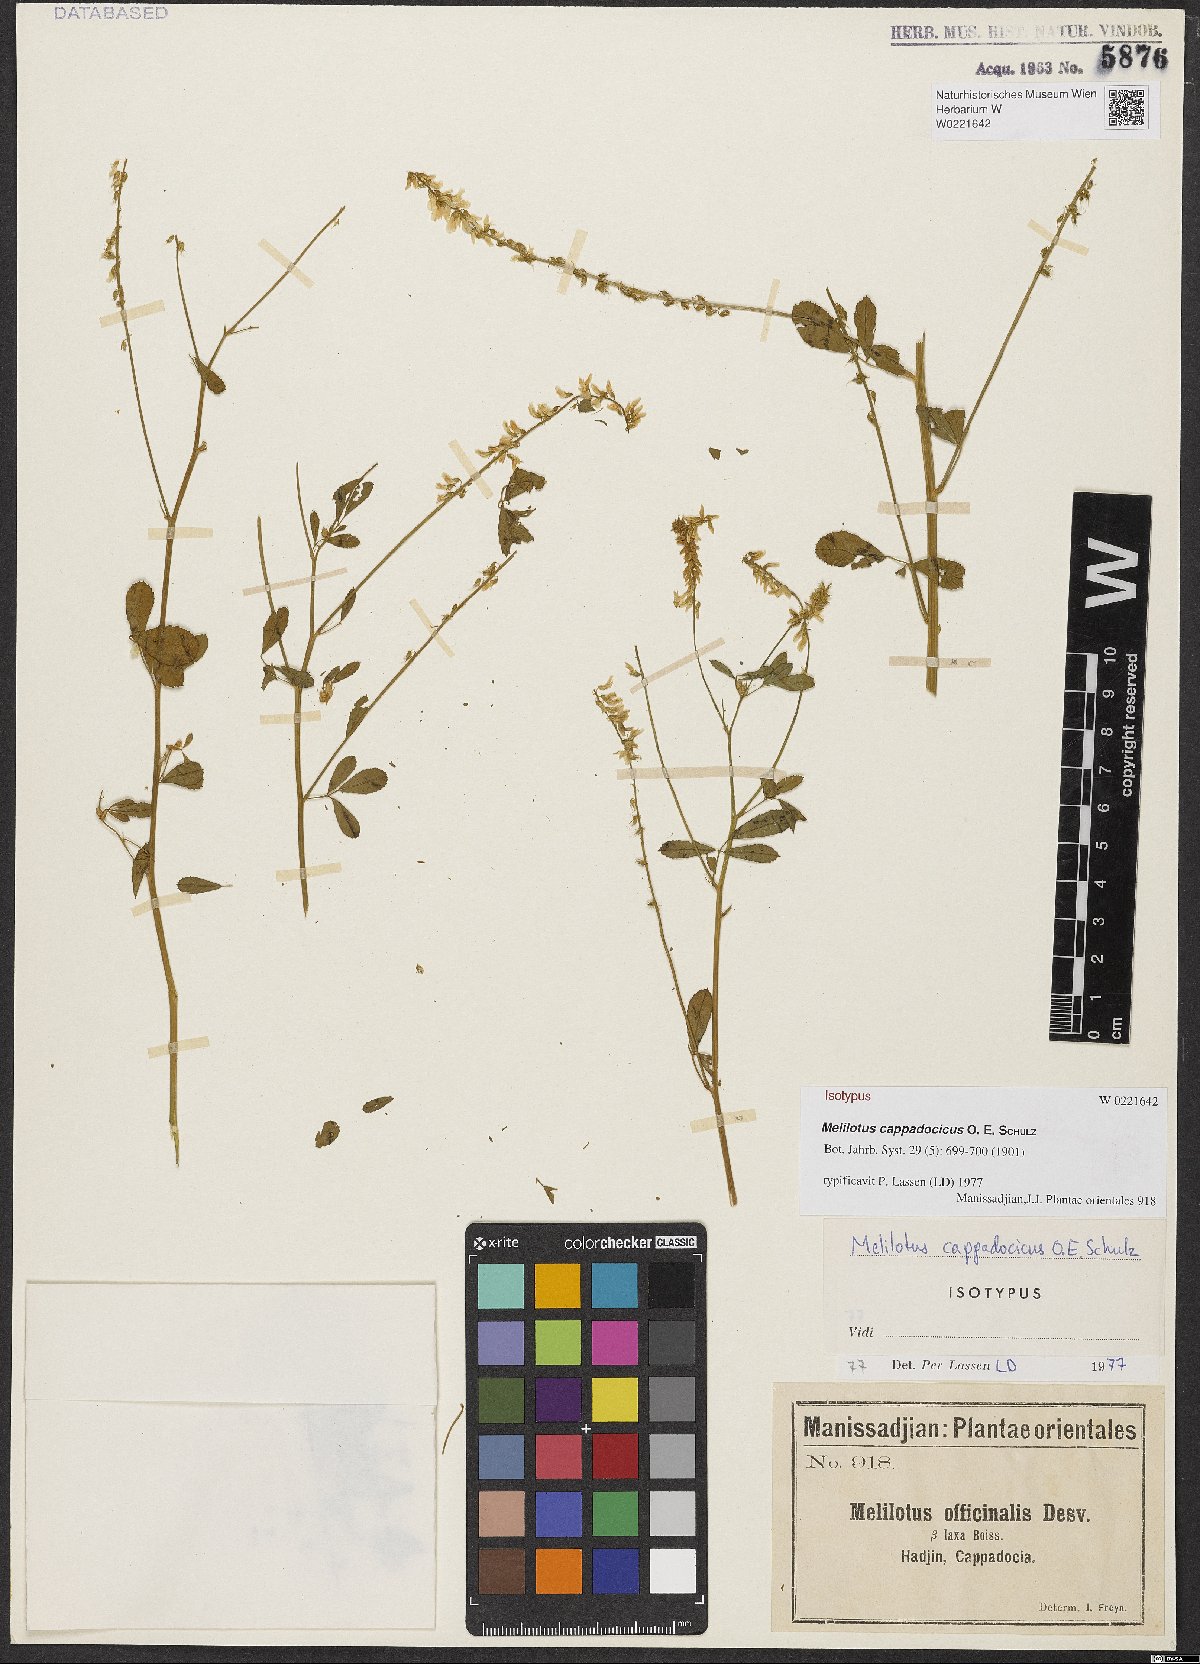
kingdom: Plantae
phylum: Tracheophyta
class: Magnoliopsida
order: Fabales
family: Fabaceae
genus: Melilotus
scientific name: Melilotus cappadocius
